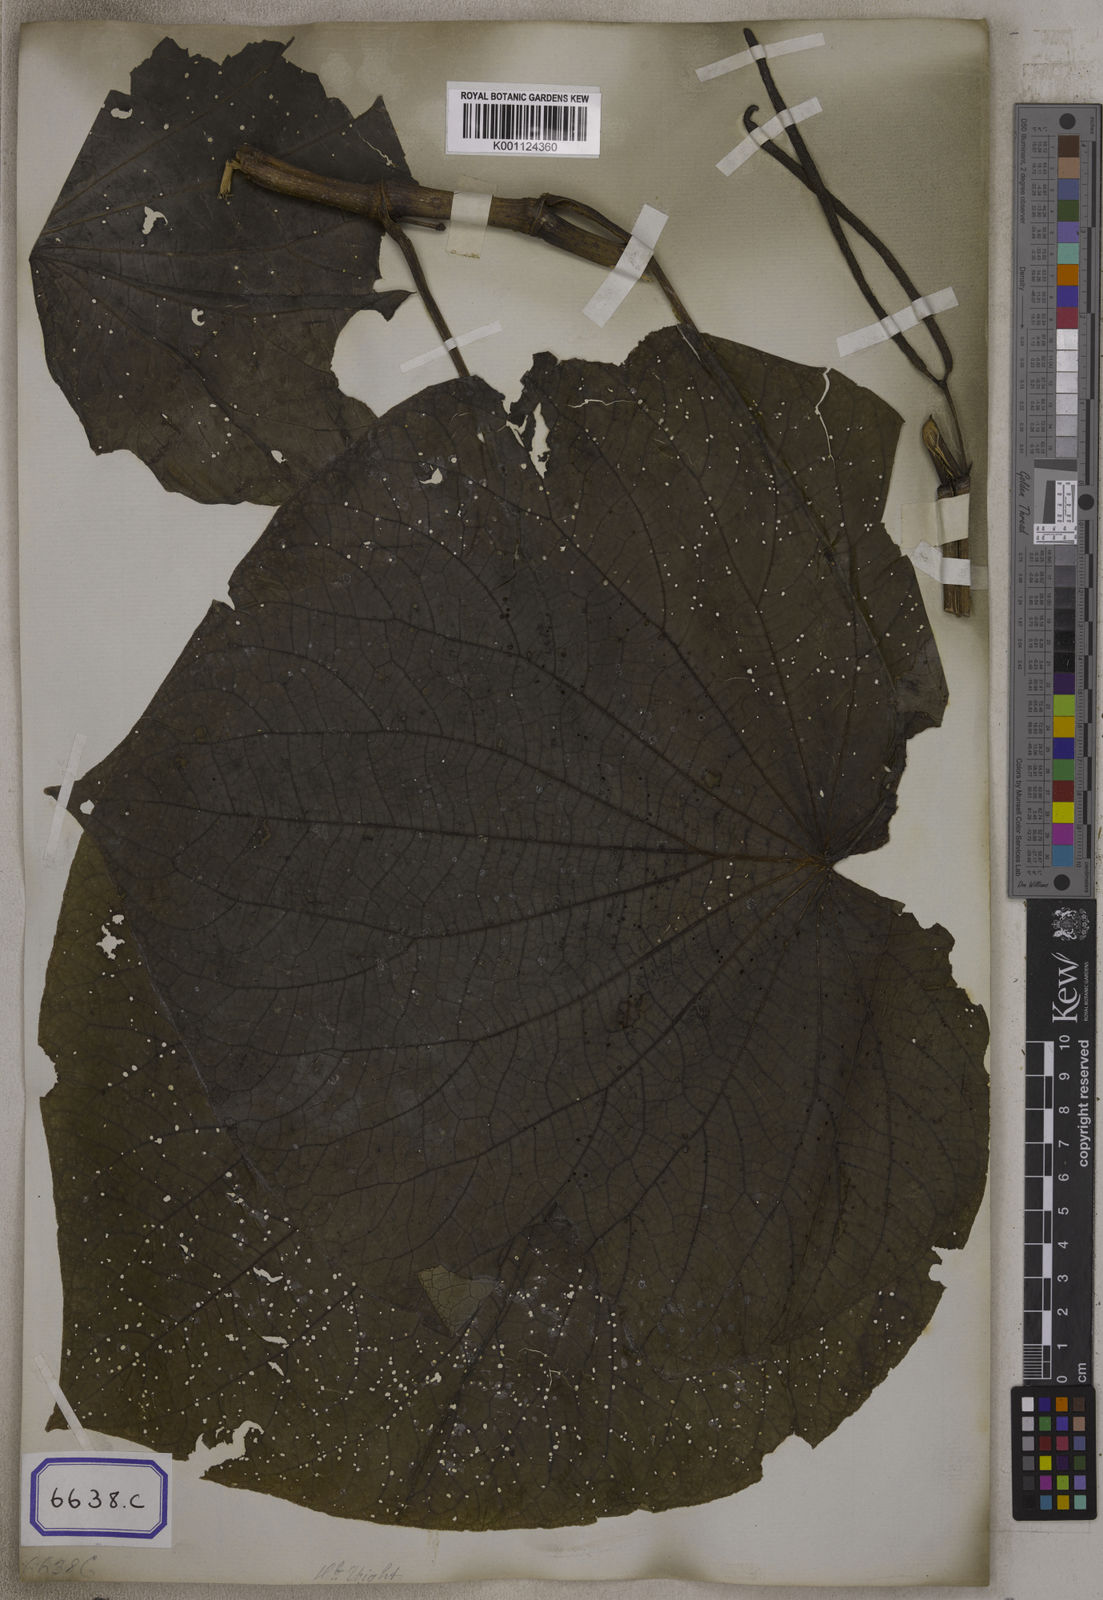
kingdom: Plantae
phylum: Tracheophyta
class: Magnoliopsida
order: Piperales
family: Piperaceae
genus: Piper
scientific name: Piper umbellatum
